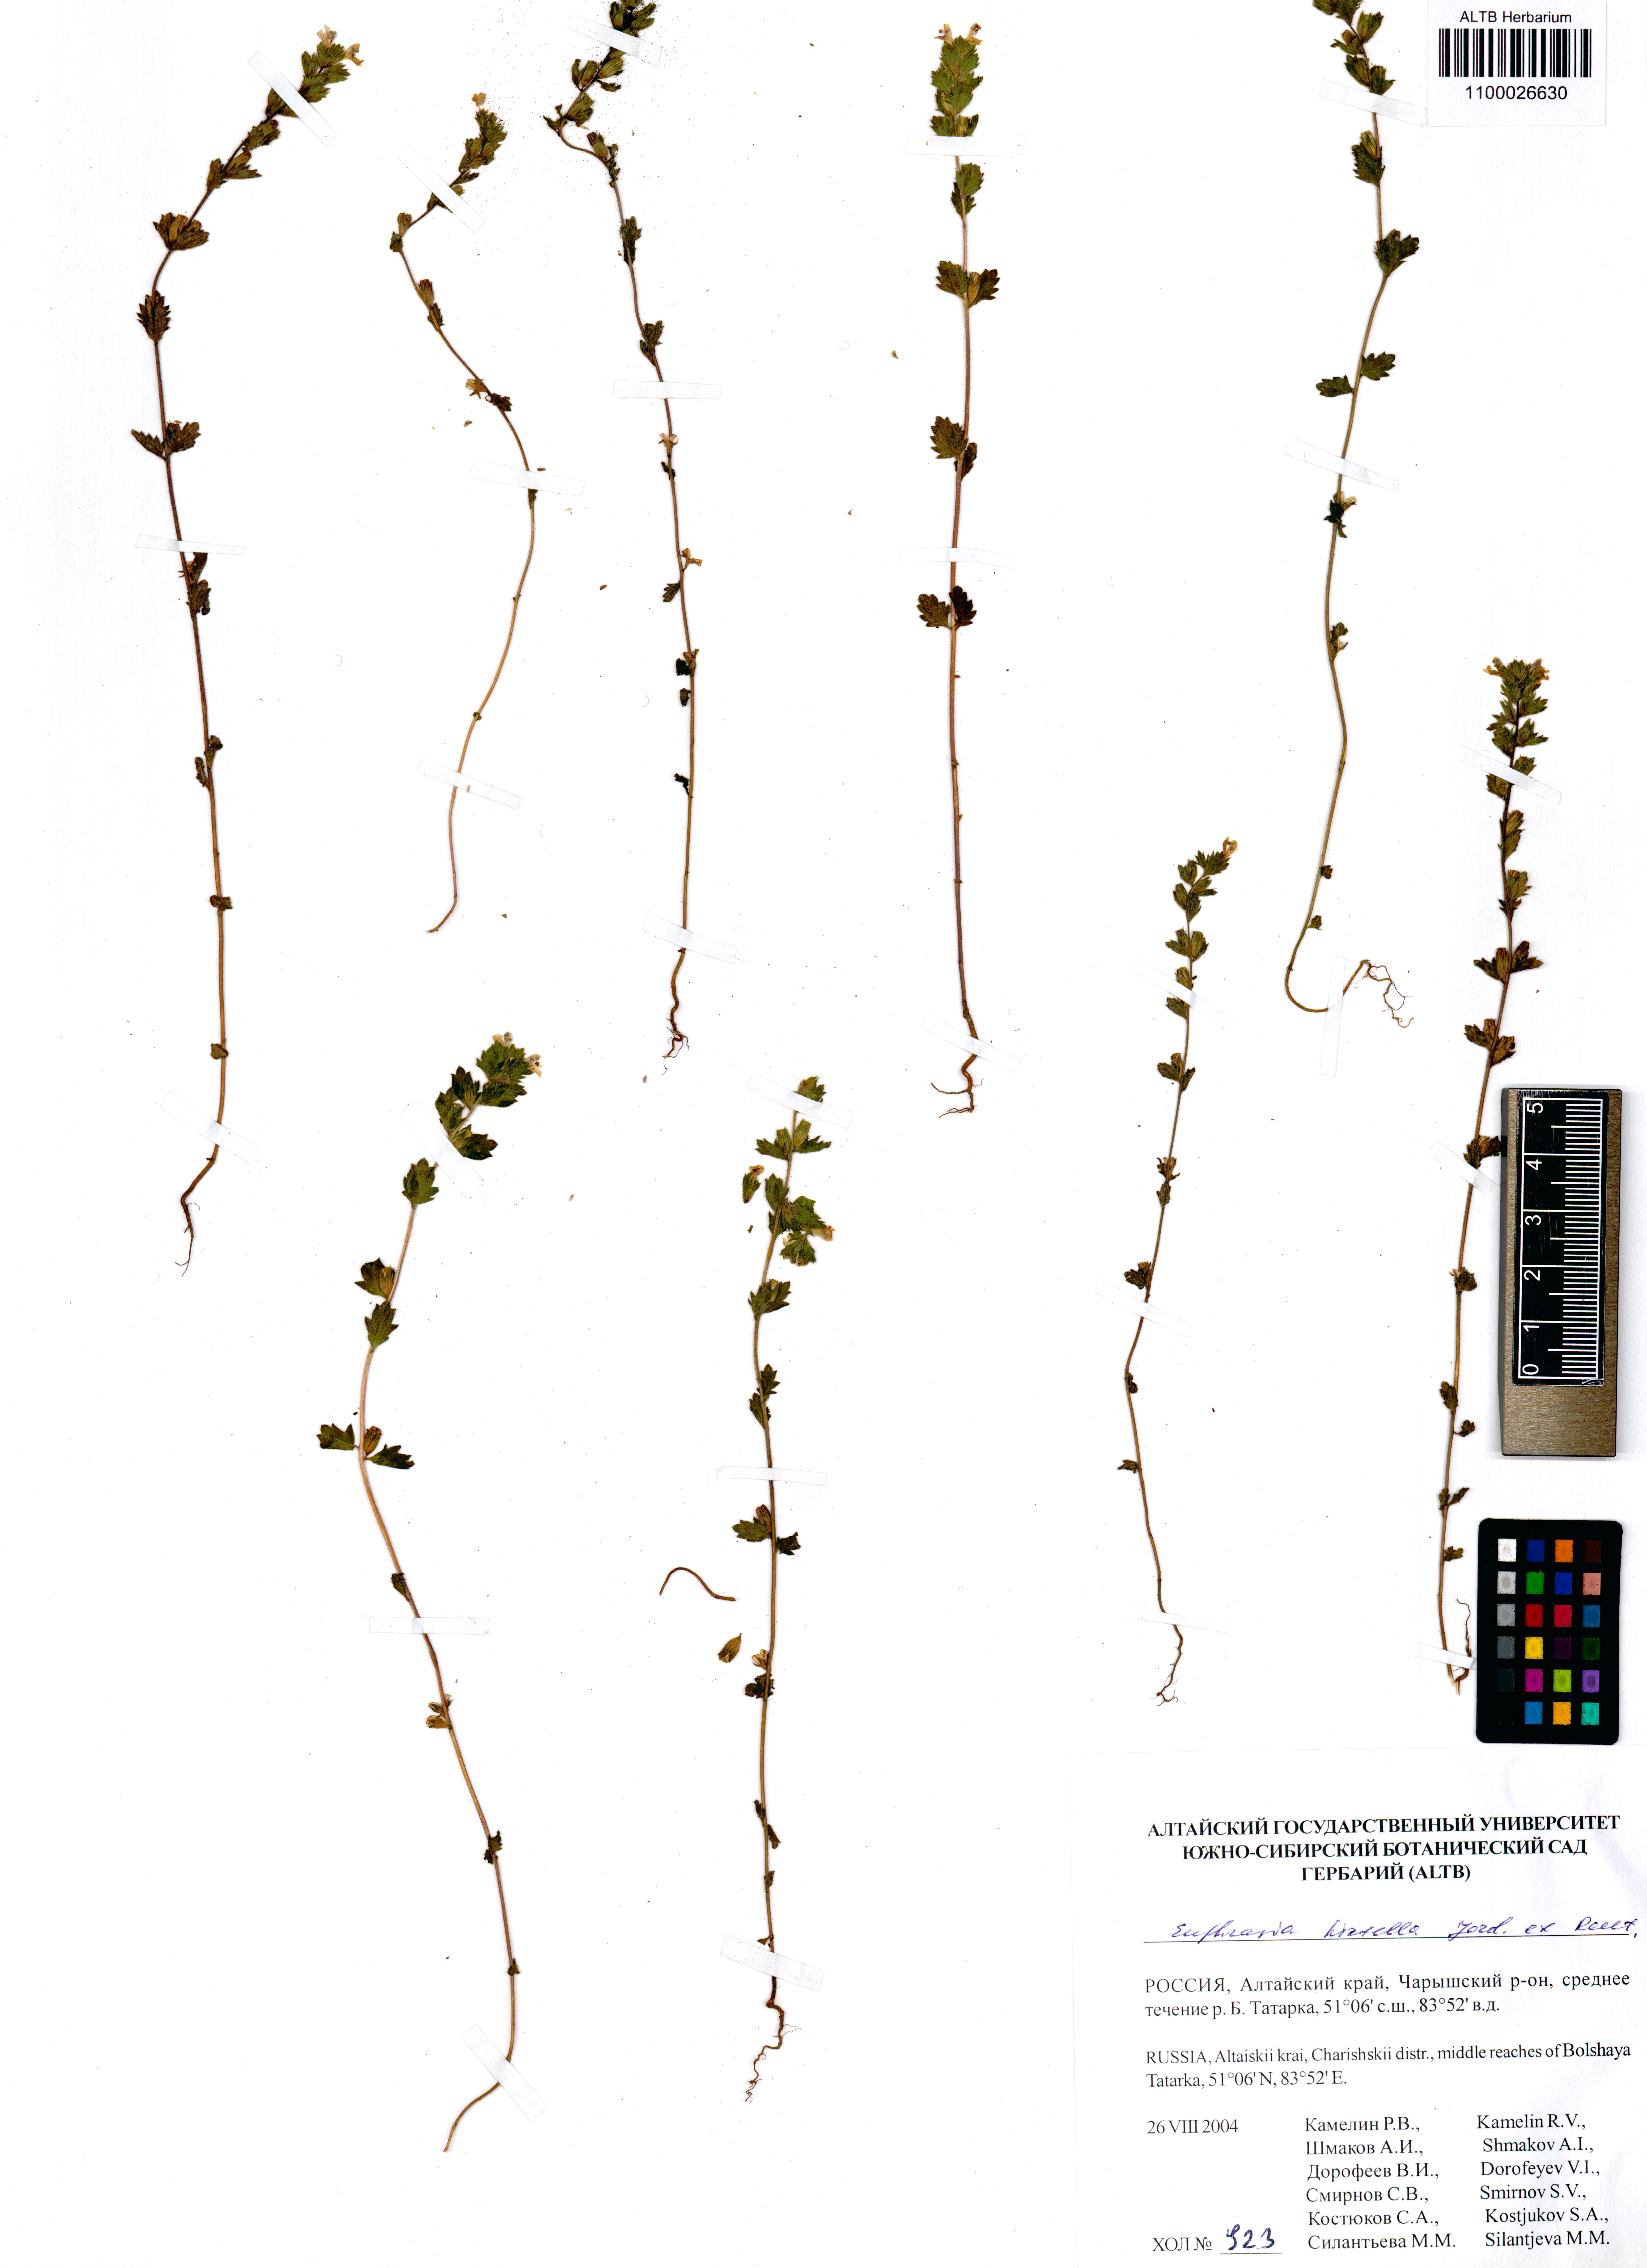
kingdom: Plantae
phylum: Tracheophyta
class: Magnoliopsida
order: Lamiales
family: Orobanchaceae
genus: Euphrasia
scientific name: Euphrasia hirtella
